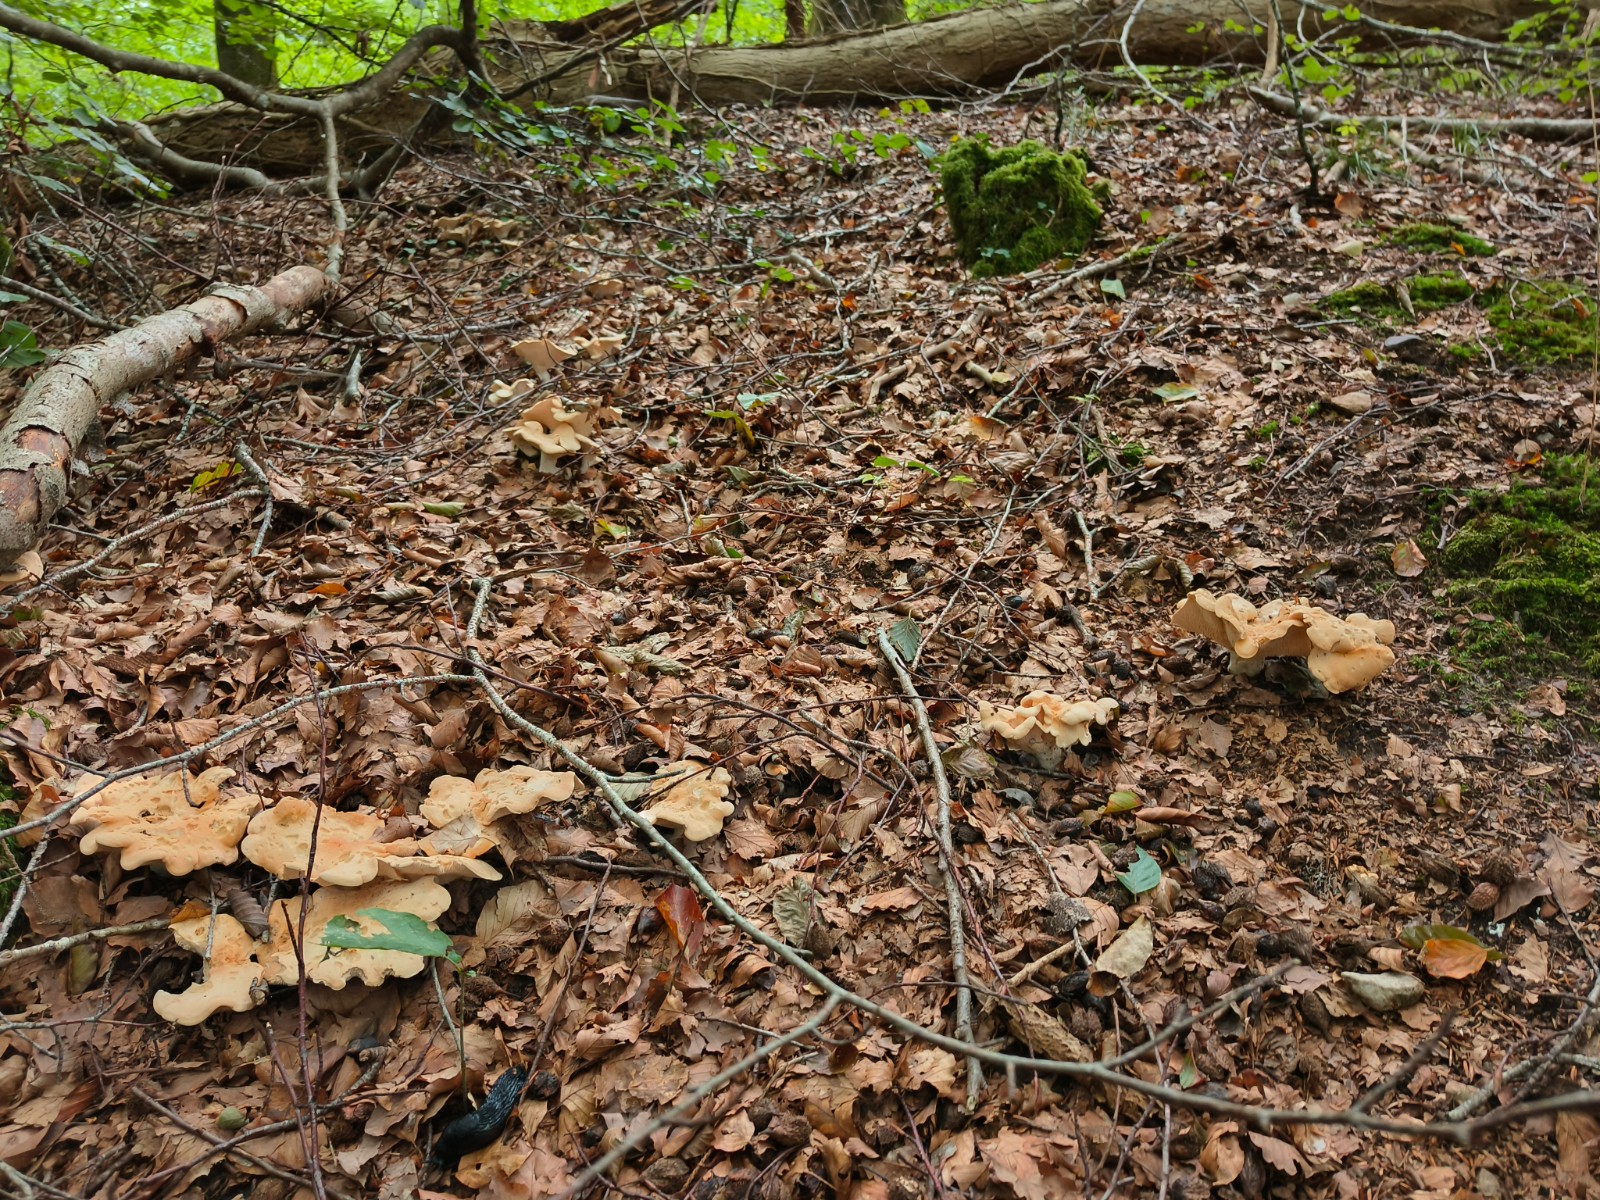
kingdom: Fungi
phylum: Basidiomycota
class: Agaricomycetes
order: Cantharellales
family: Hydnaceae
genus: Hydnum
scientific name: Hydnum repandum
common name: almindelig pigsvamp
